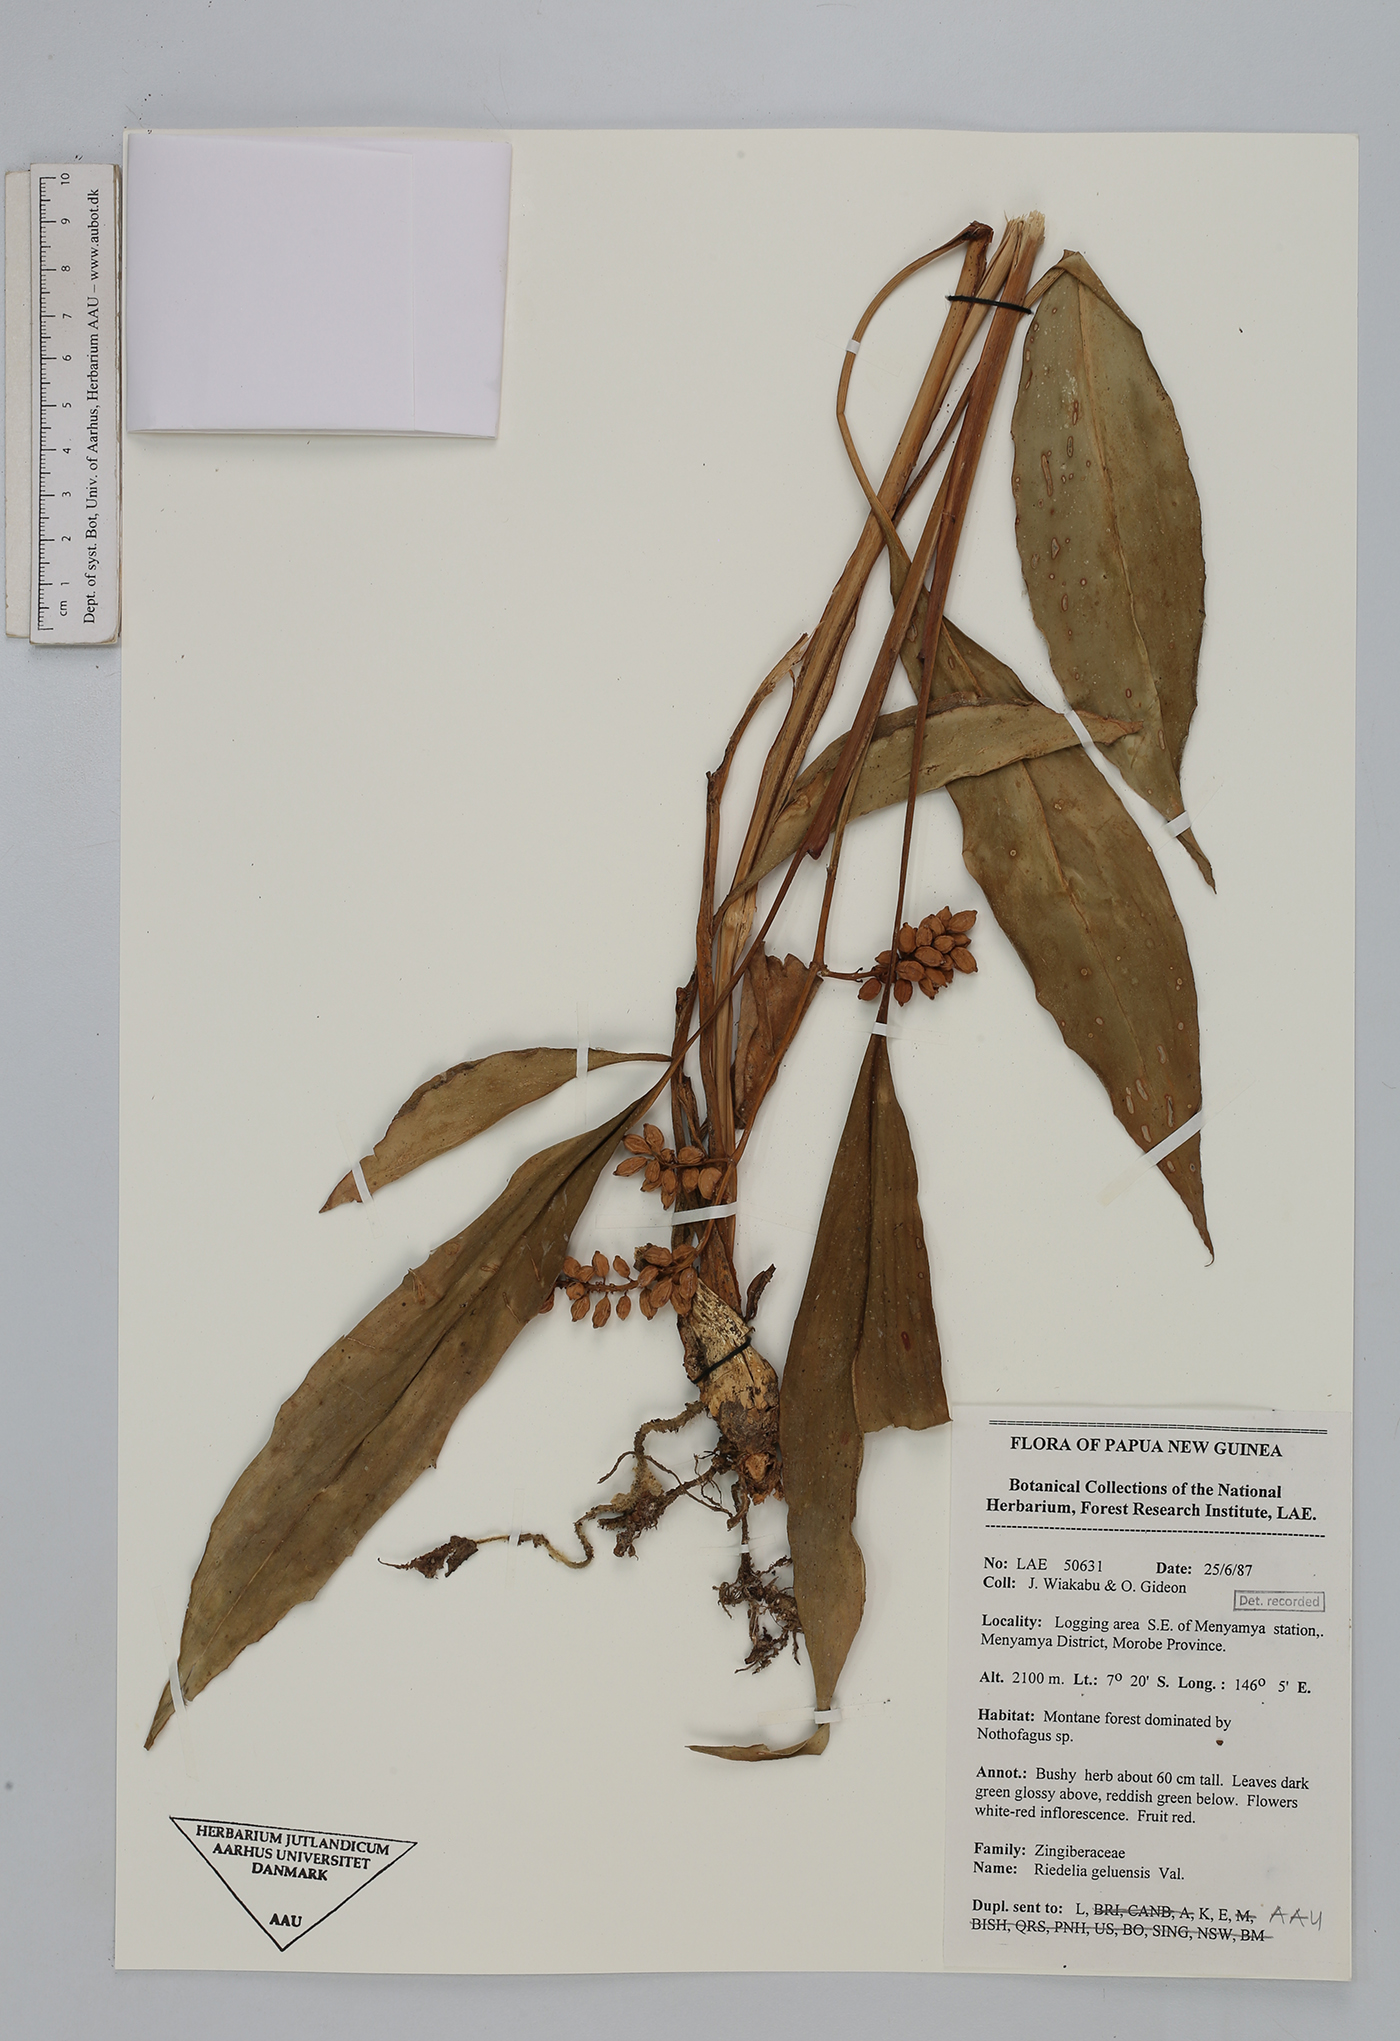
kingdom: Plantae
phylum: Tracheophyta
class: Liliopsida
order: Zingiberales
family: Zingiberaceae
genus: Riedelia
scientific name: Riedelia geluensis
